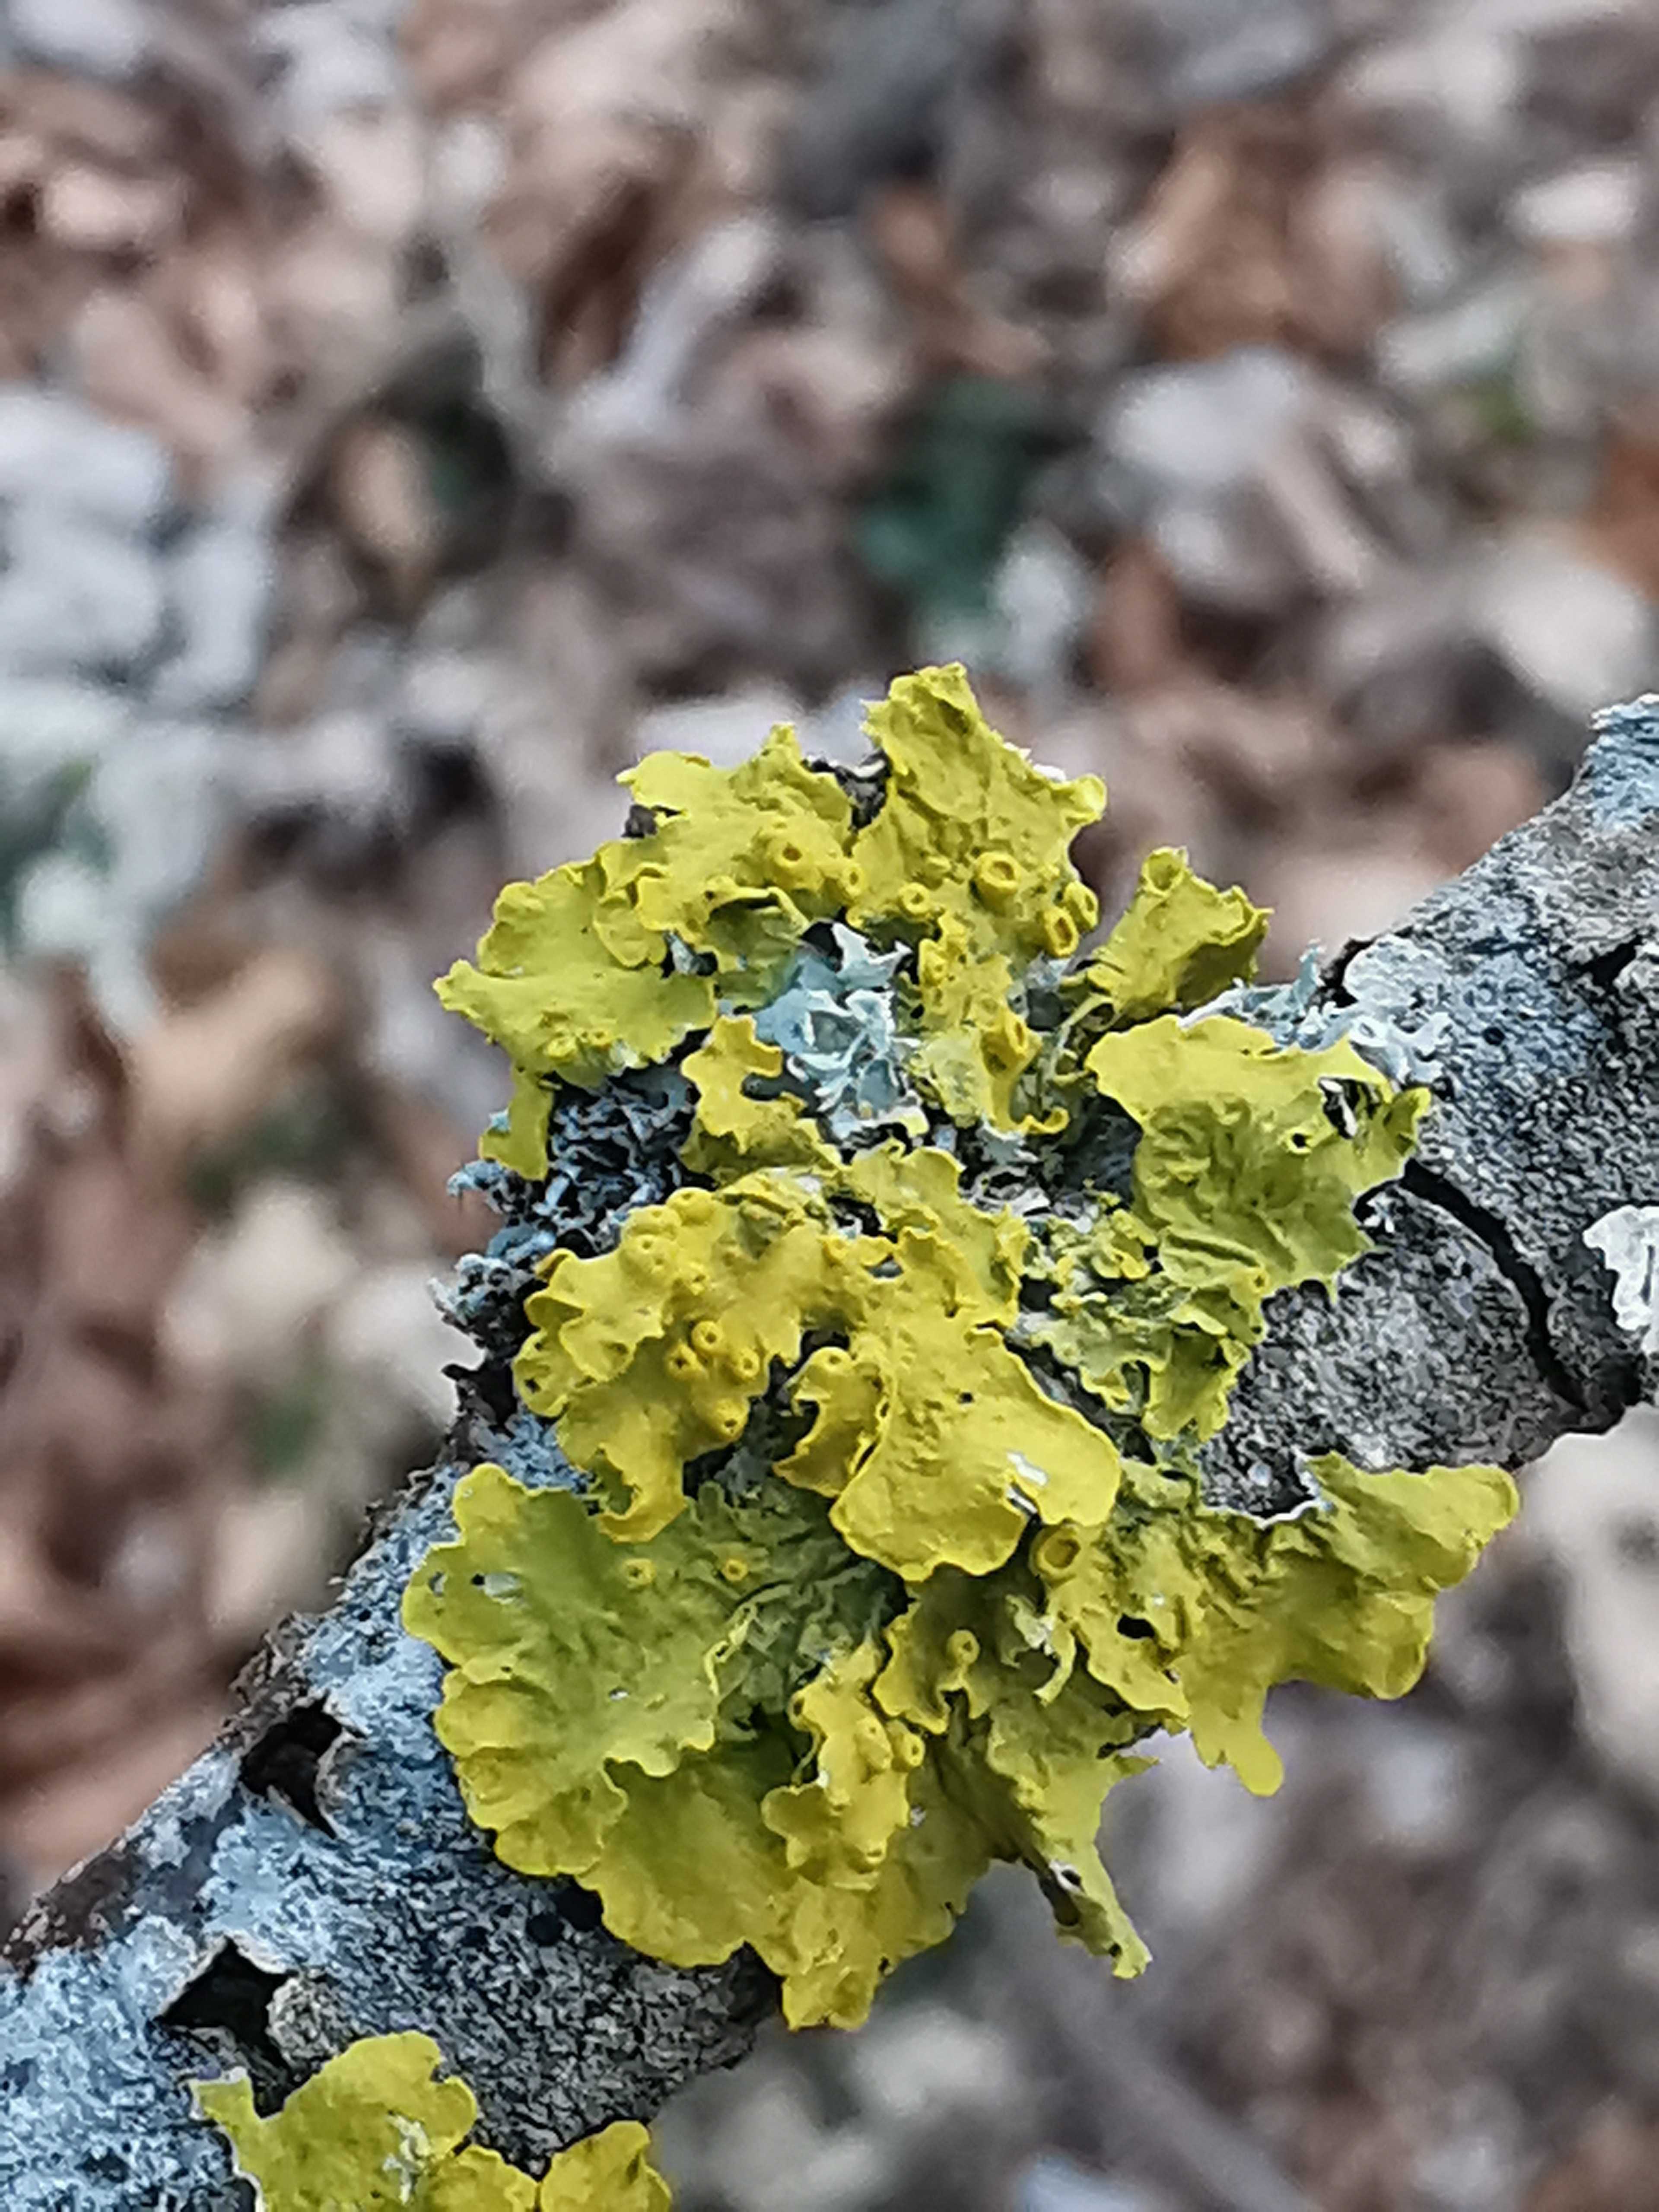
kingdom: Fungi
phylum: Ascomycota
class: Lecanoromycetes
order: Teloschistales
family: Teloschistaceae
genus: Xanthoria
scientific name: Xanthoria parietina
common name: almindelig væggelav
